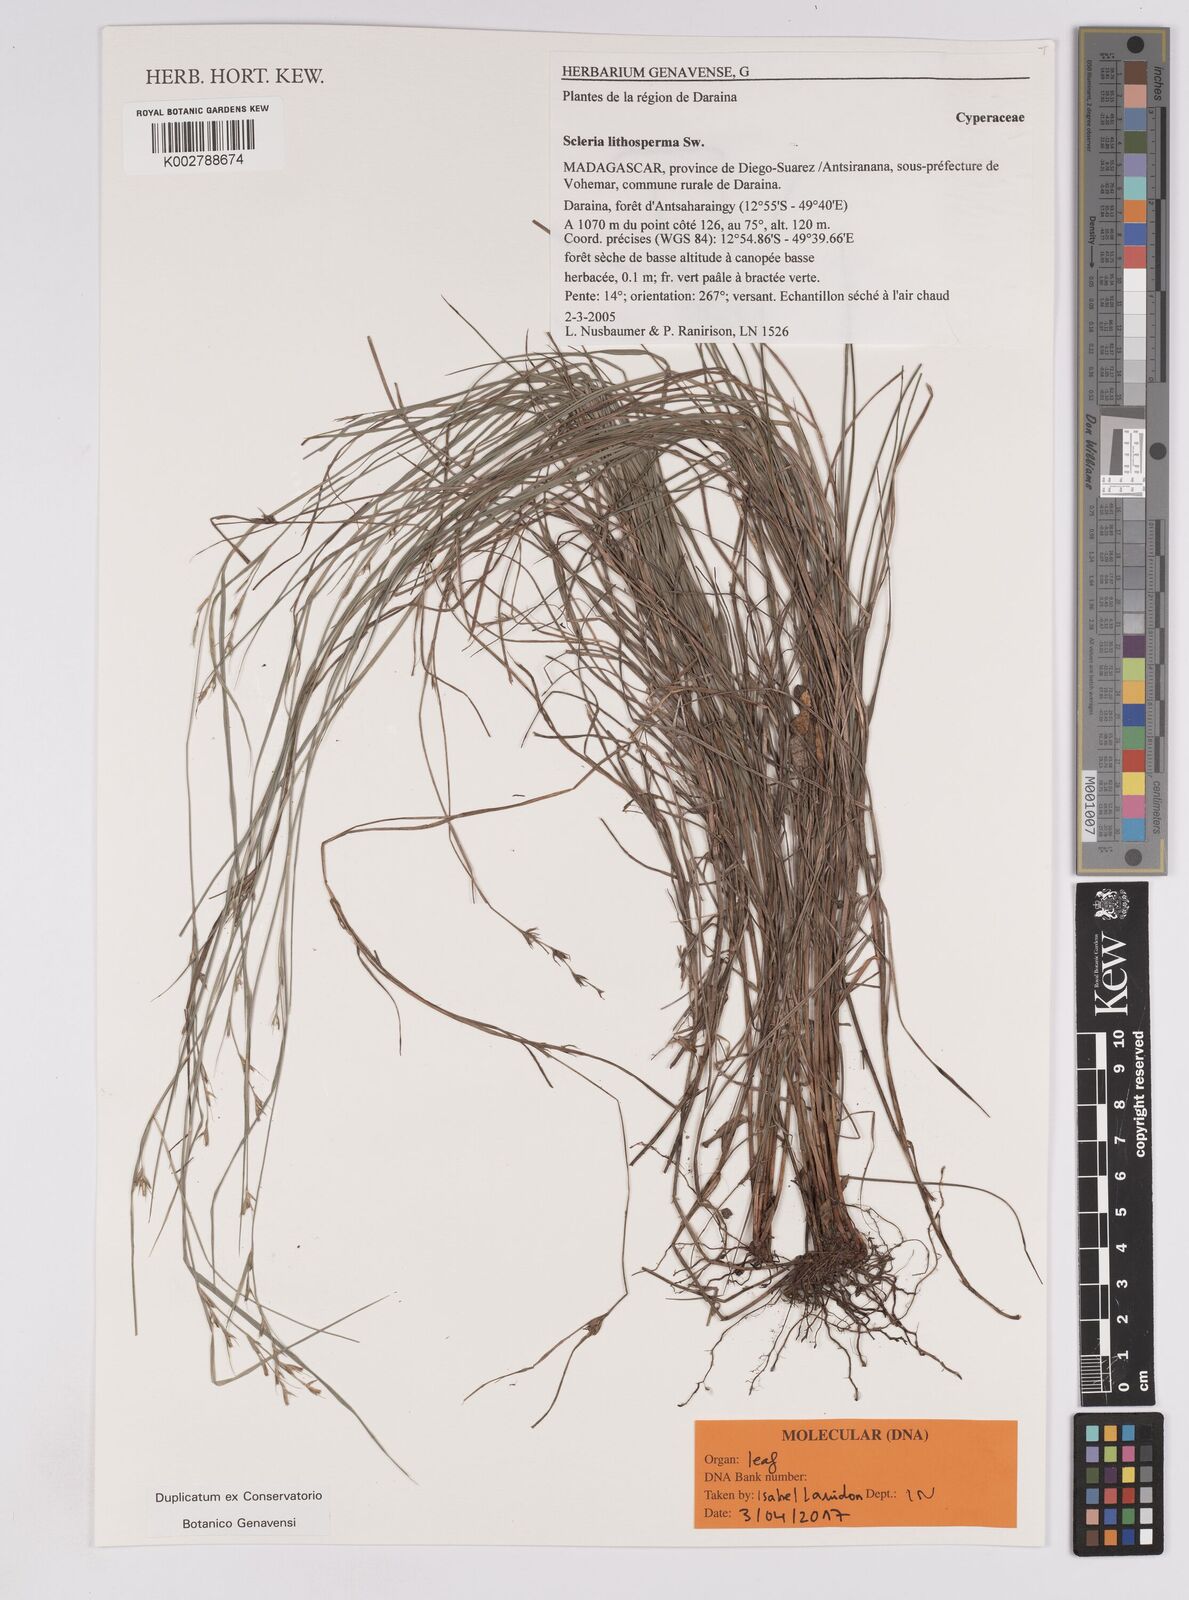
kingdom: Plantae
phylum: Tracheophyta
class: Liliopsida
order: Poales
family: Cyperaceae
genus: Scleria
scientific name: Scleria lithosperma
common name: Florida keys nut-rush
